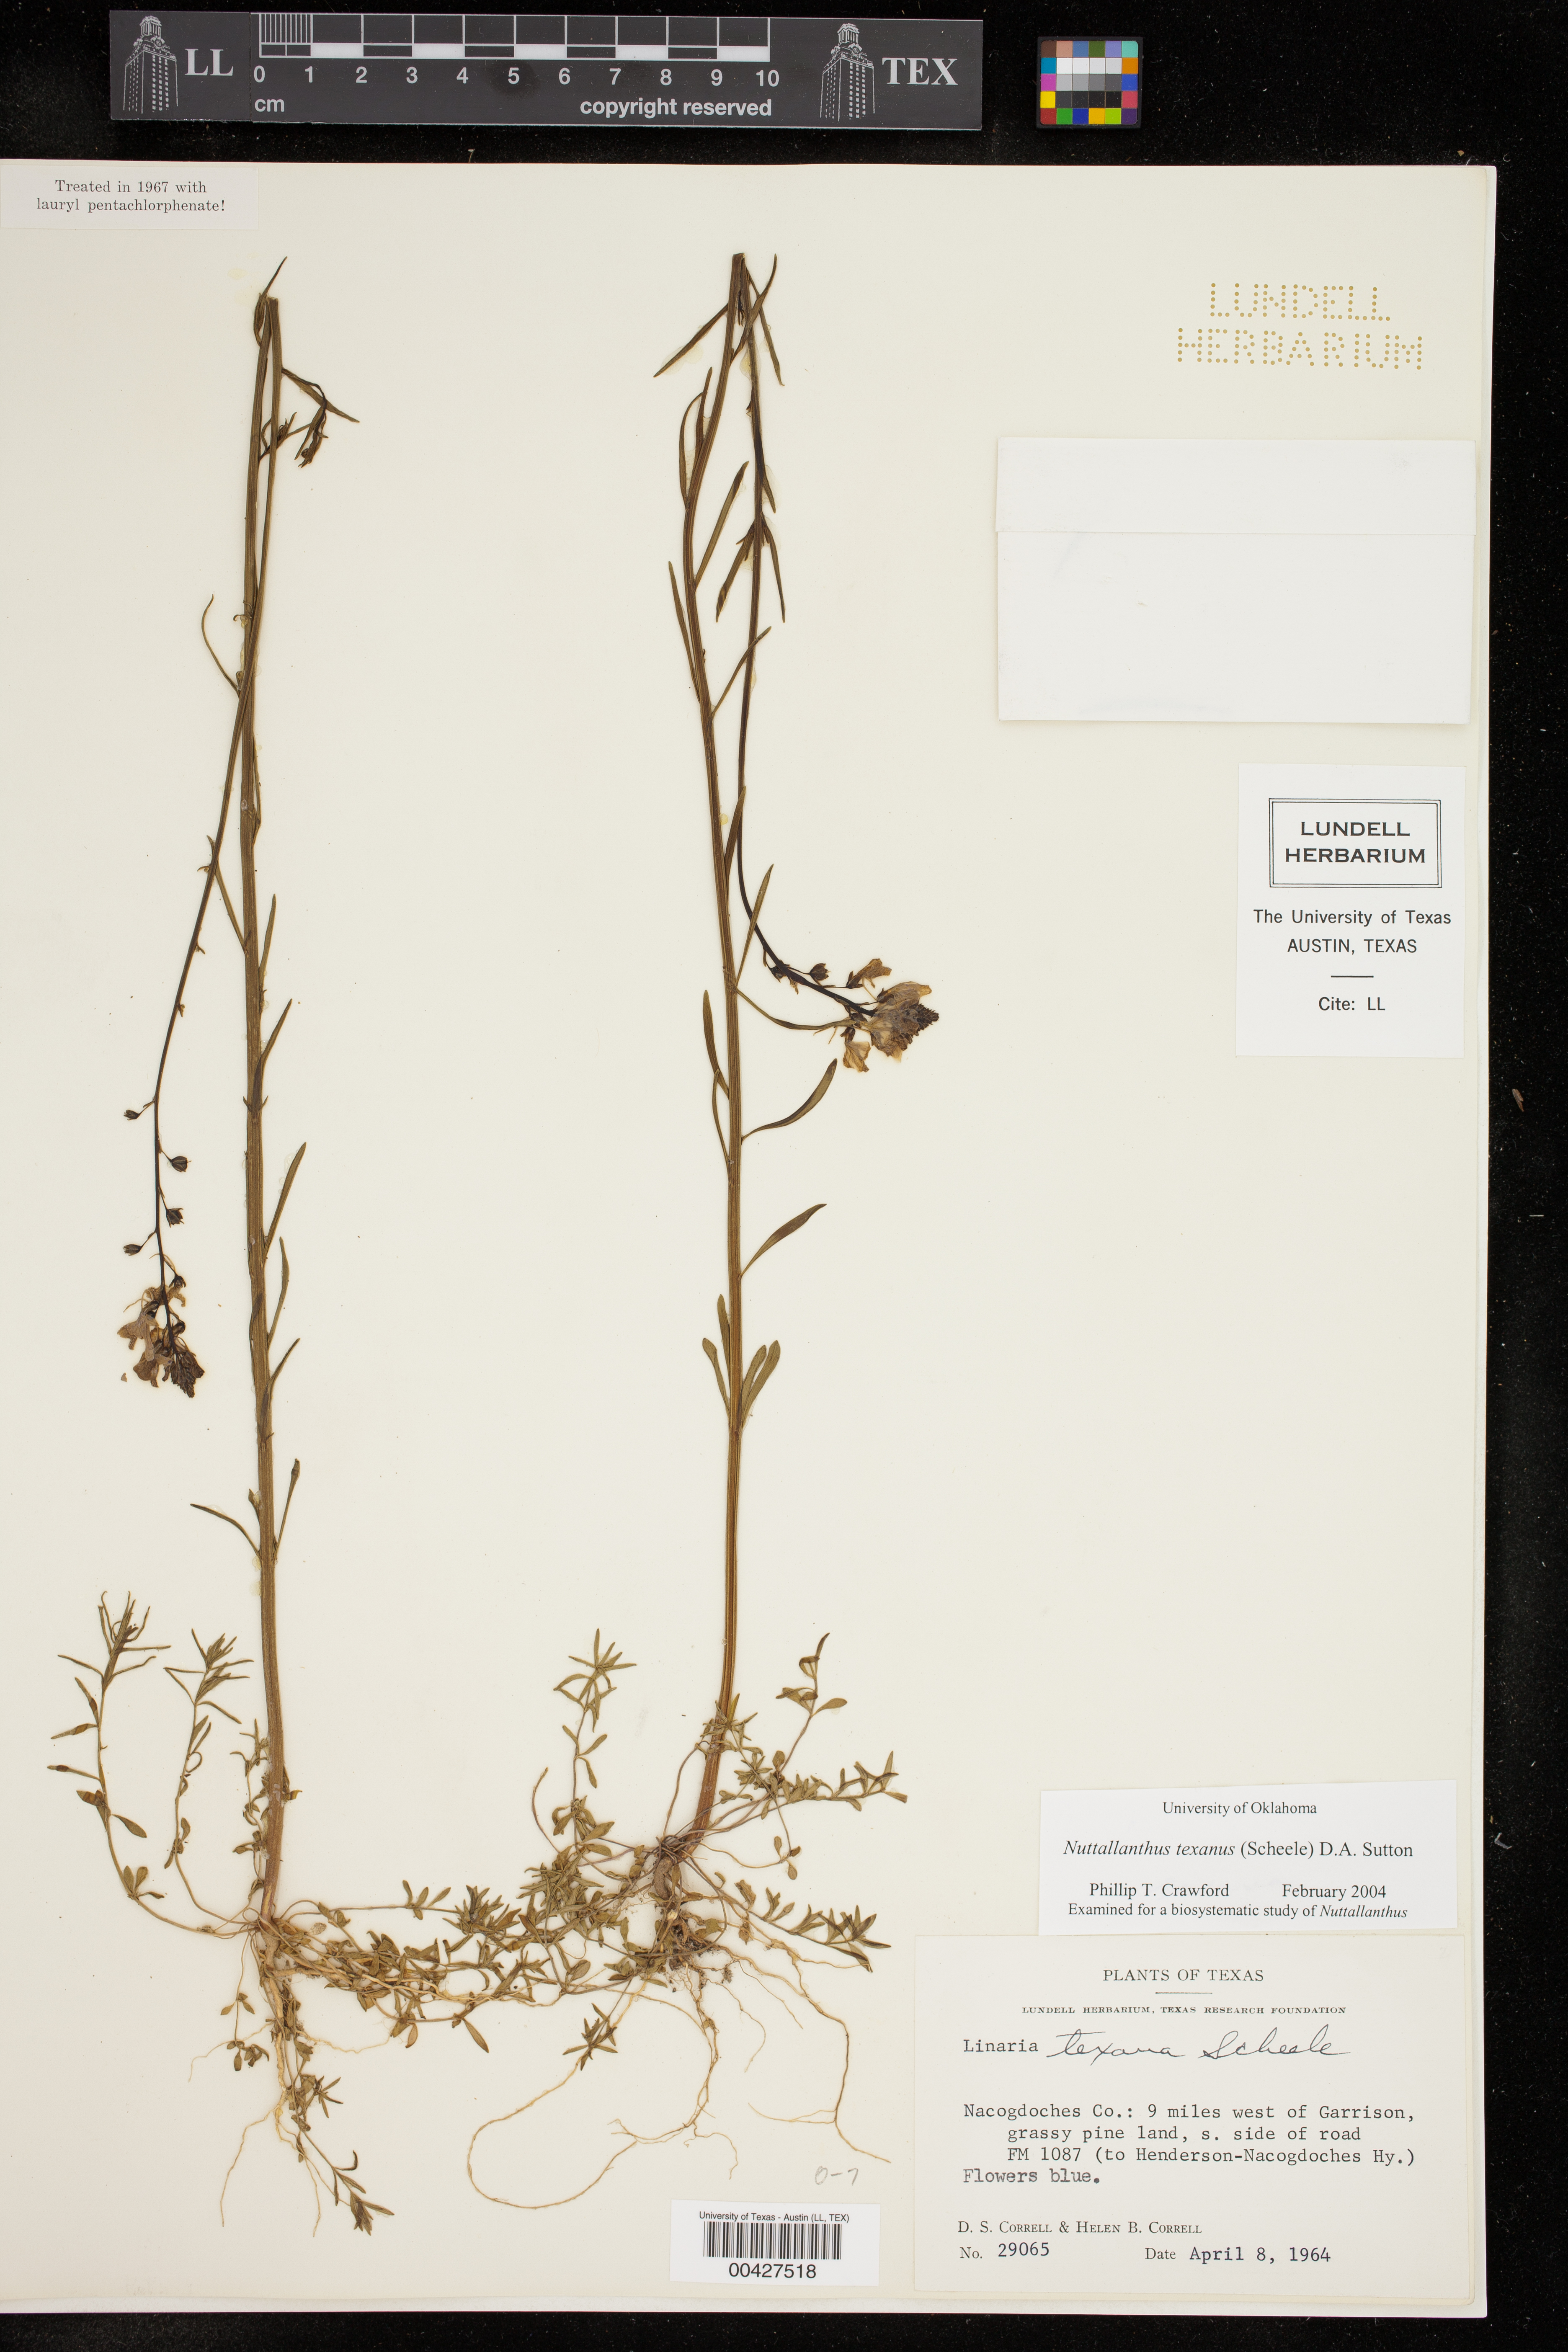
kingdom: Plantae
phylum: Tracheophyta
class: Magnoliopsida
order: Lamiales
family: Plantaginaceae
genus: Nuttallanthus
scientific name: Nuttallanthus texanus
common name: Texas toadflax
